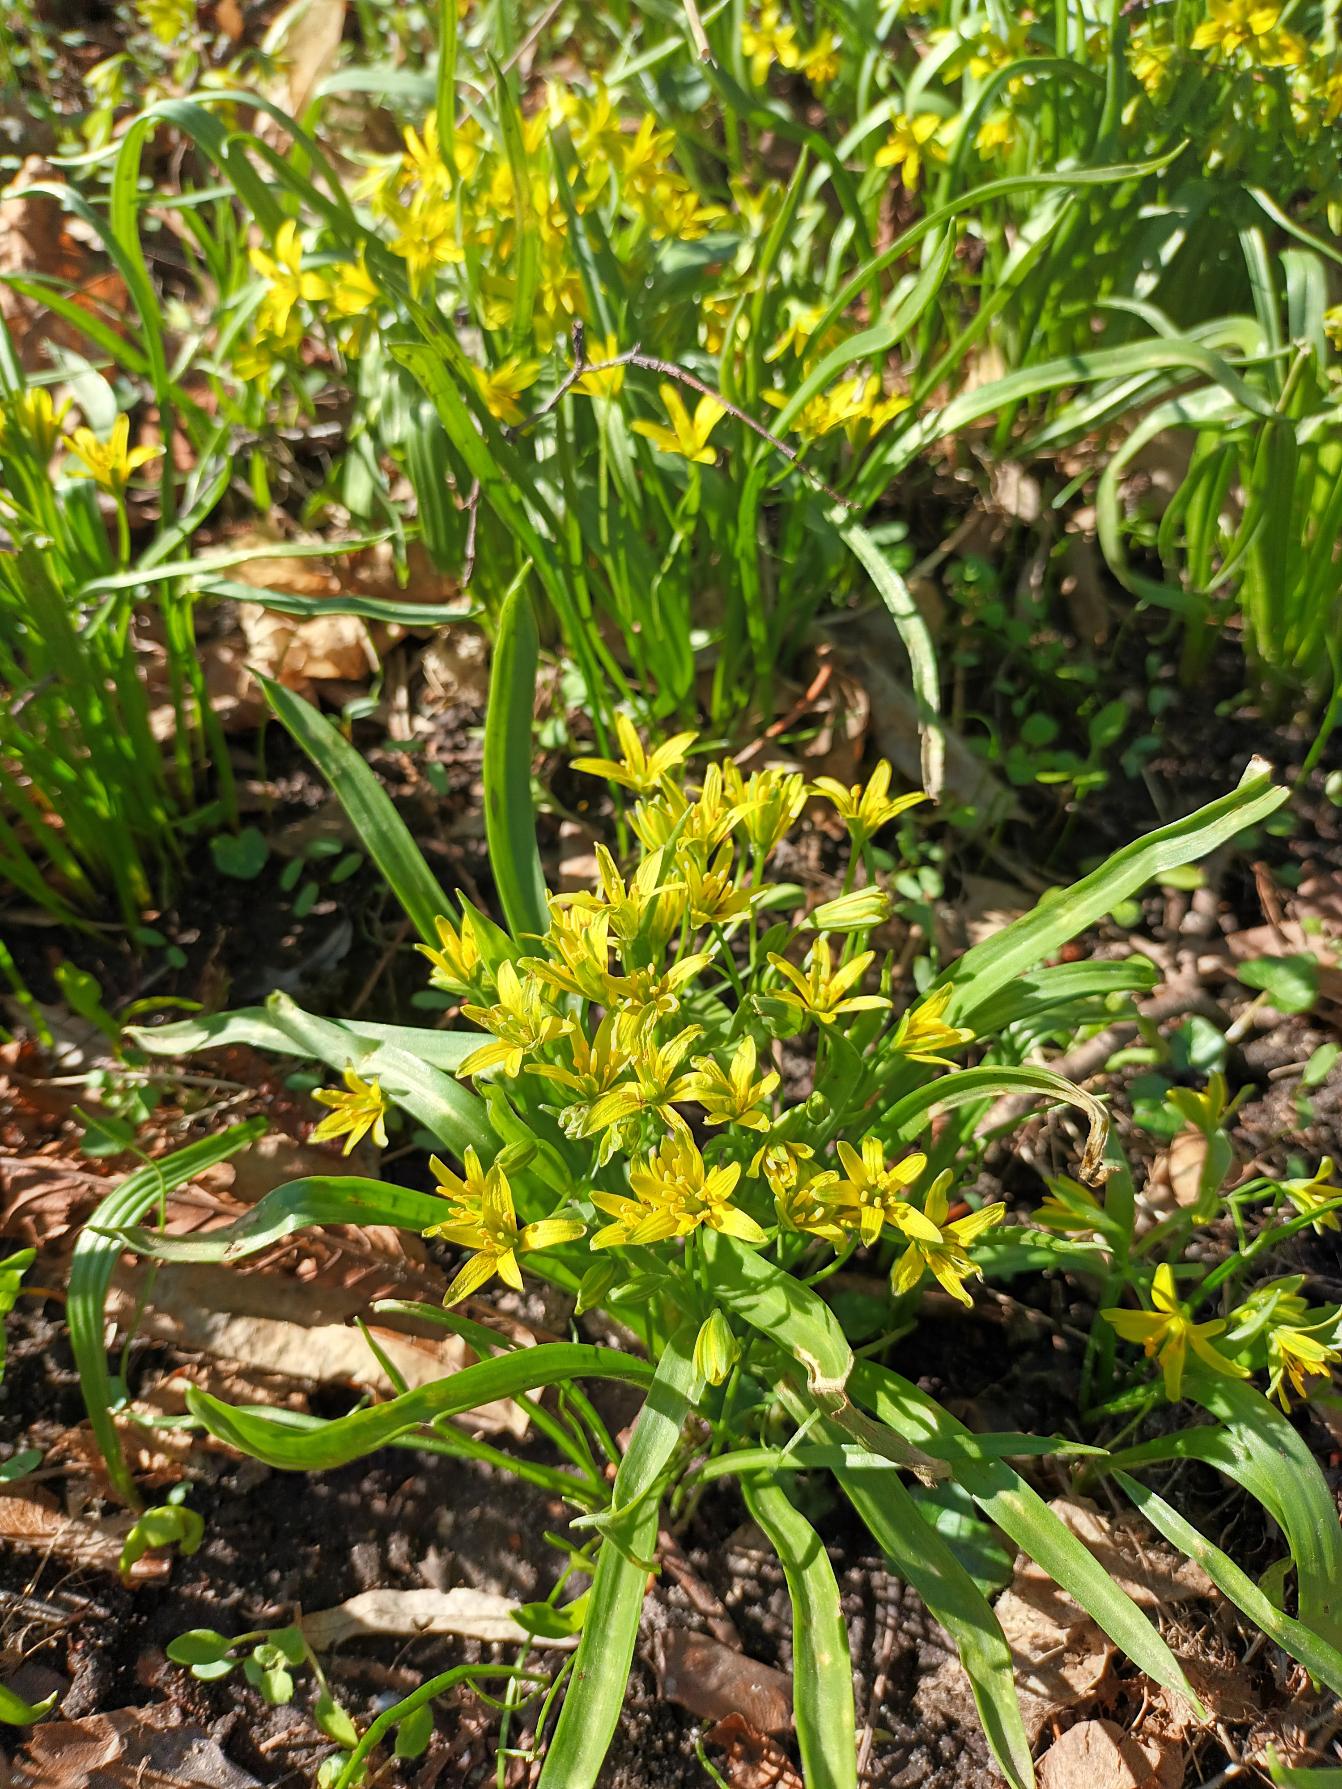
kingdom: Plantae
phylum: Tracheophyta
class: Liliopsida
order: Liliales
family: Liliaceae
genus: Gagea
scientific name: Gagea lutea
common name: Almindelig guldstjerne
